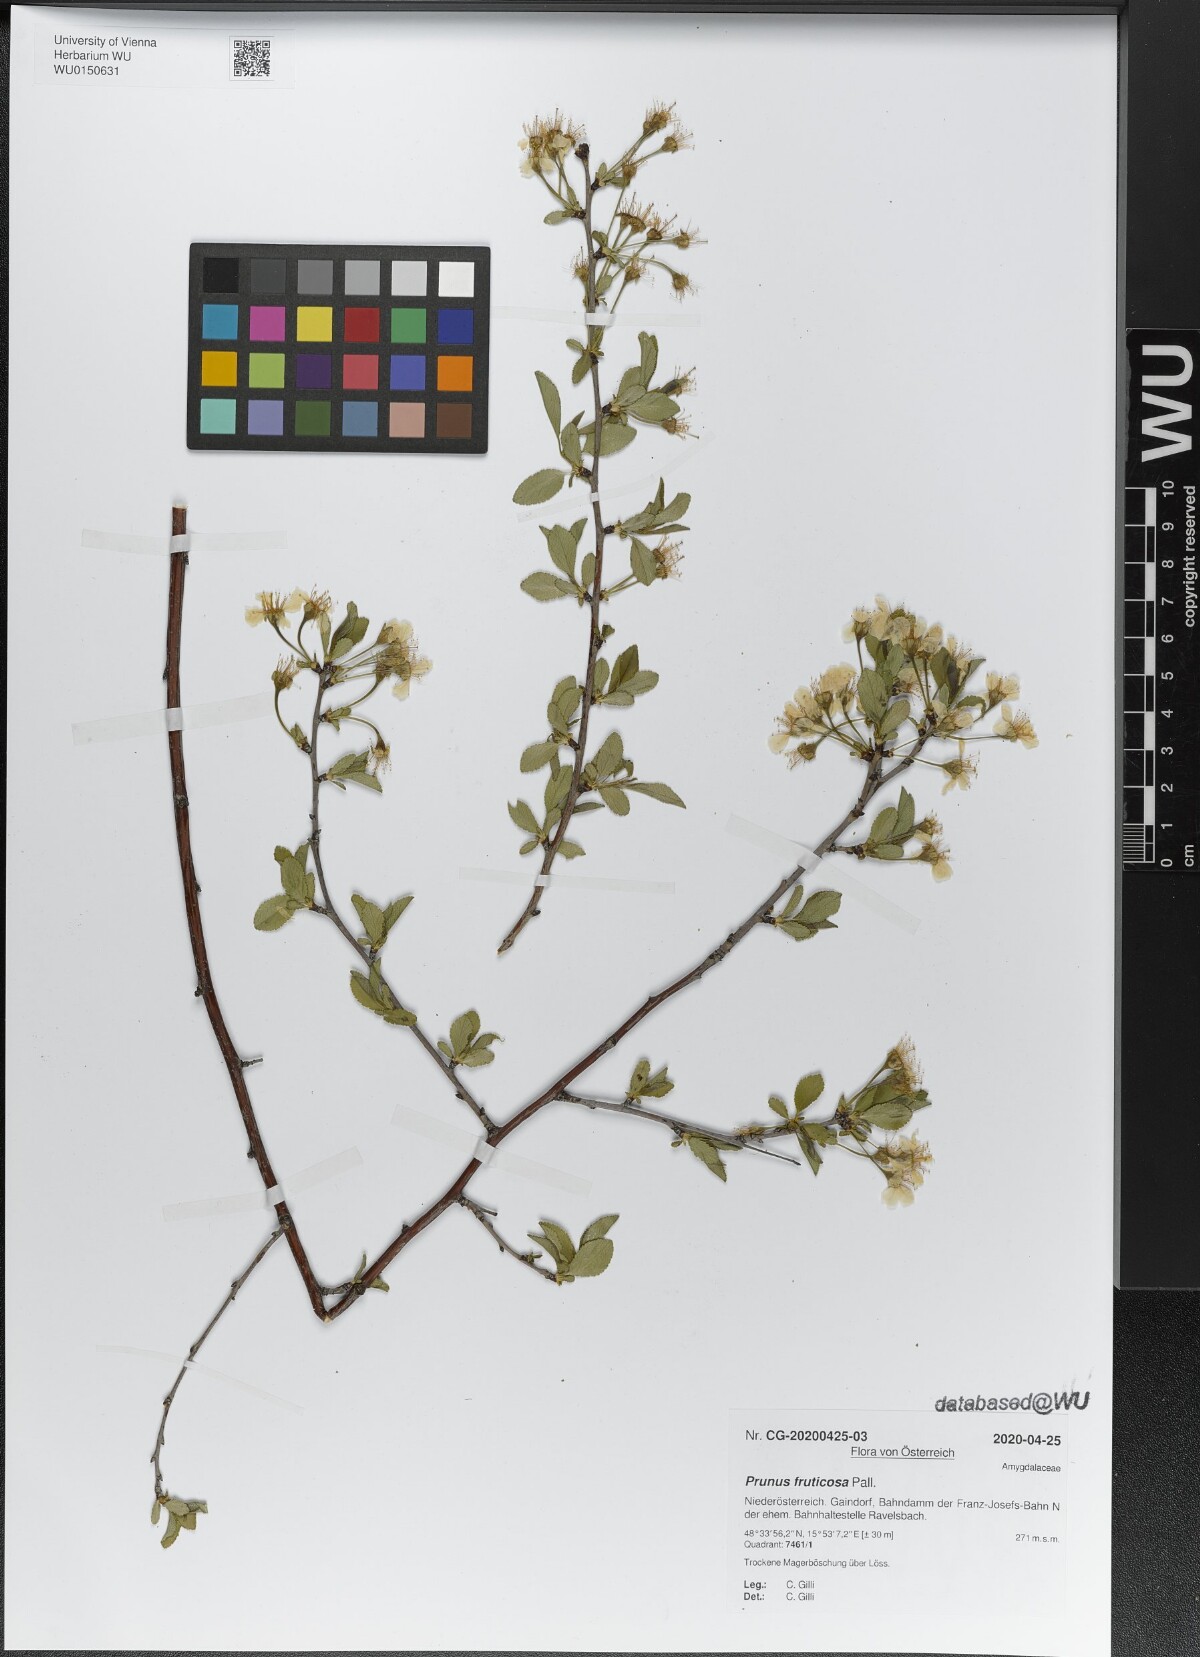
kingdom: Plantae
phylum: Tracheophyta
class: Magnoliopsida
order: Rosales
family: Rosaceae
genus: Prunus
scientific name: Prunus fruticosa
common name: European dwarf cherry
